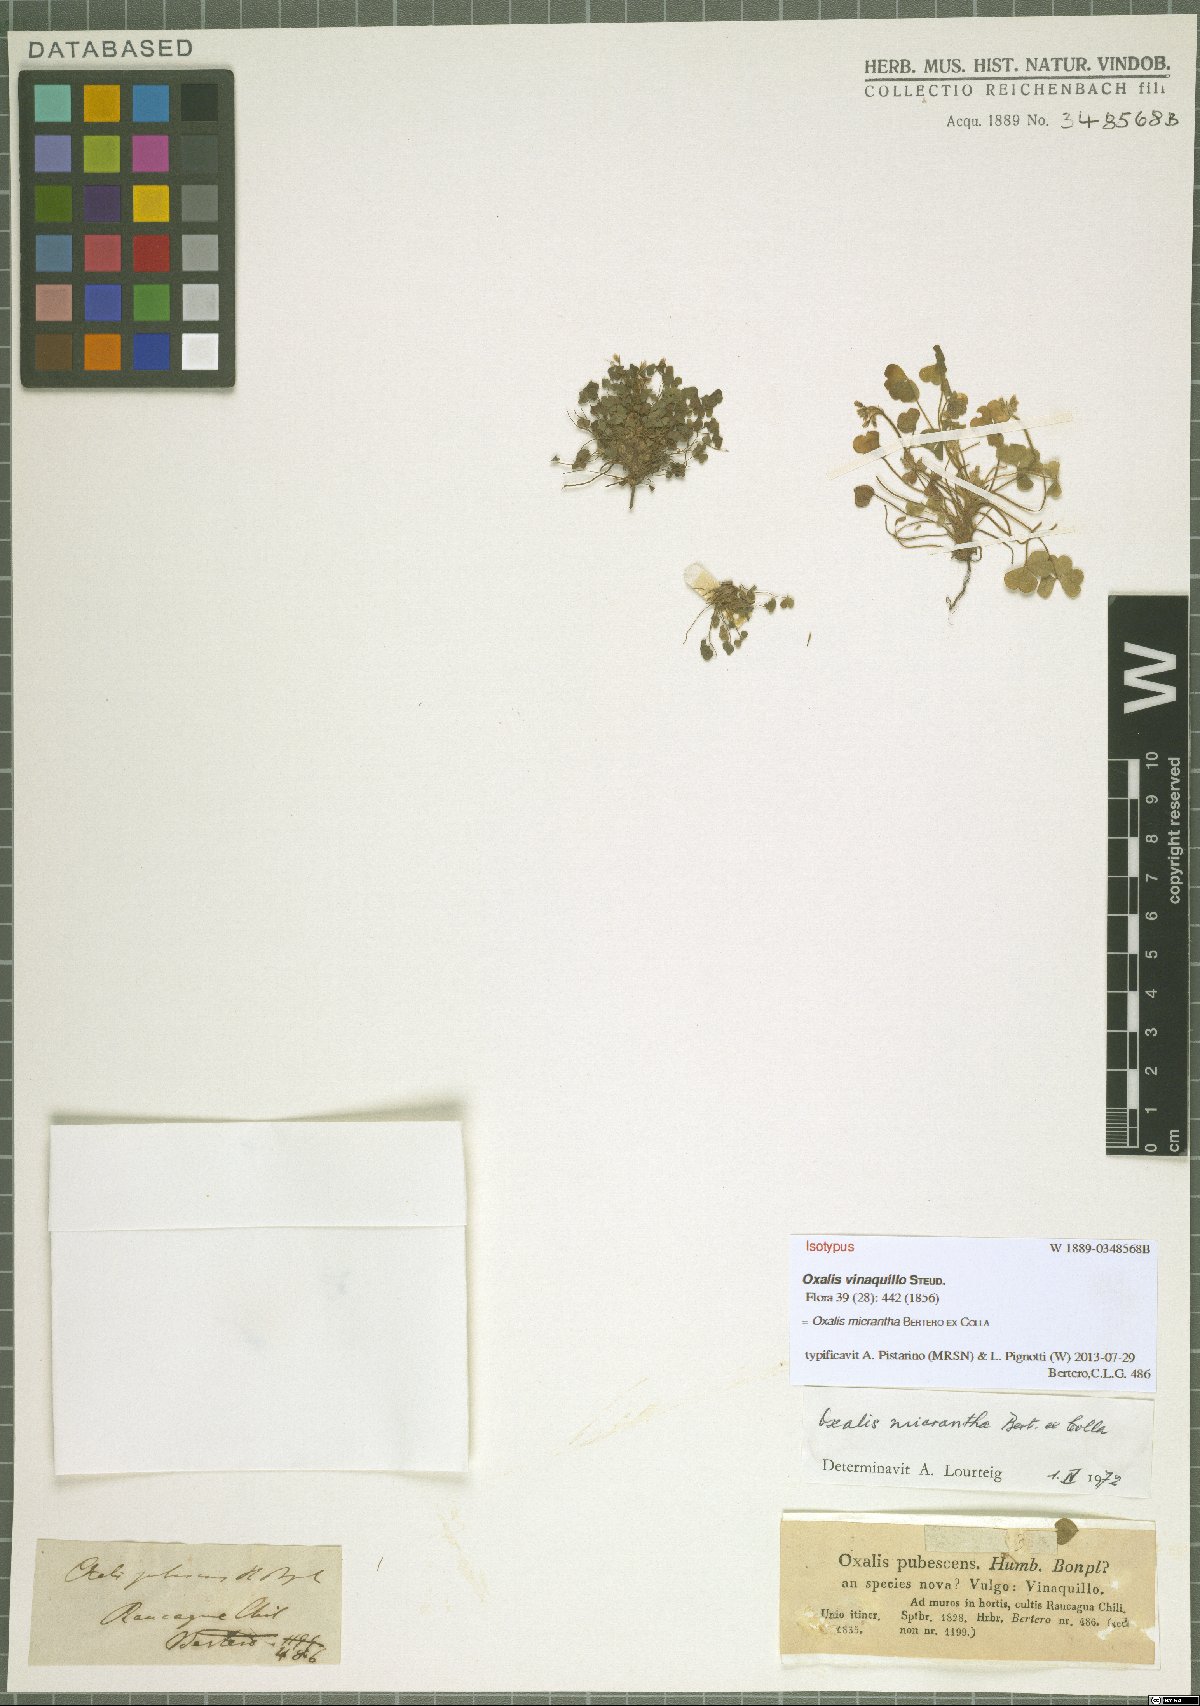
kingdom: Plantae
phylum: Tracheophyta
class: Magnoliopsida
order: Oxalidales
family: Oxalidaceae
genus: Oxalis
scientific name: Oxalis micrantha
